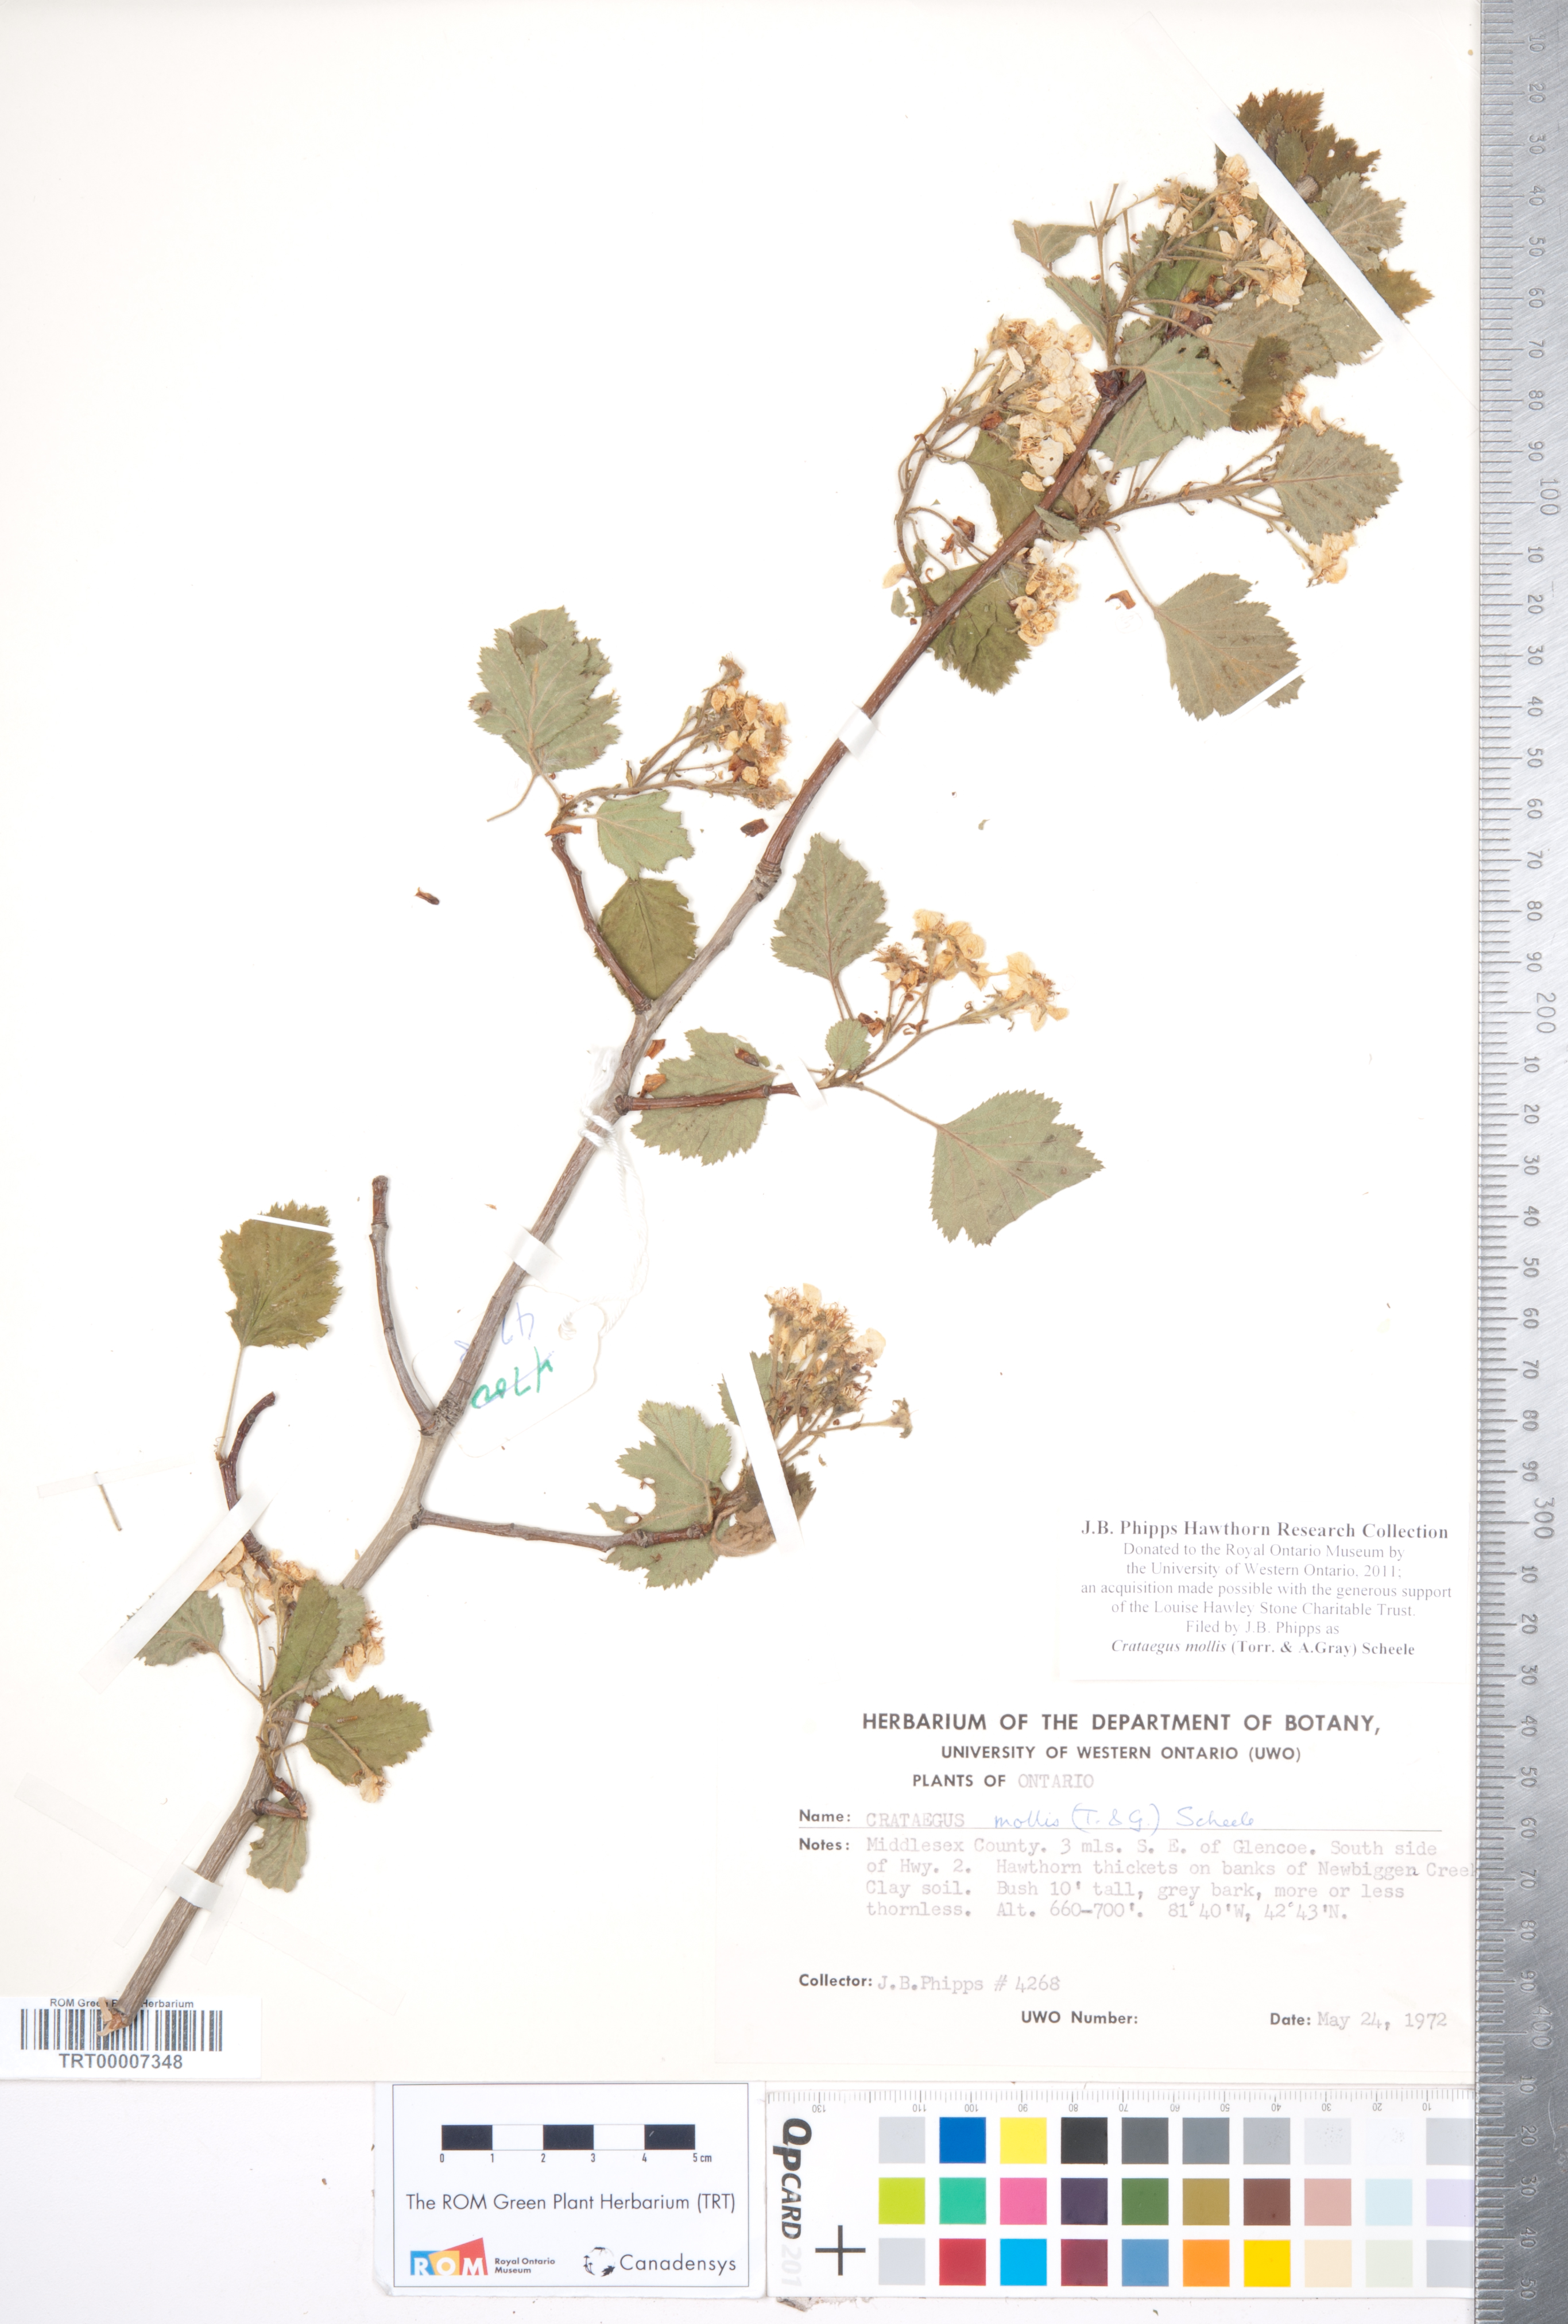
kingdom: Plantae
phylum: Tracheophyta
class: Magnoliopsida
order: Rosales
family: Rosaceae
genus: Crataegus
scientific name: Crataegus mollis
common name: Downy hawthorn
